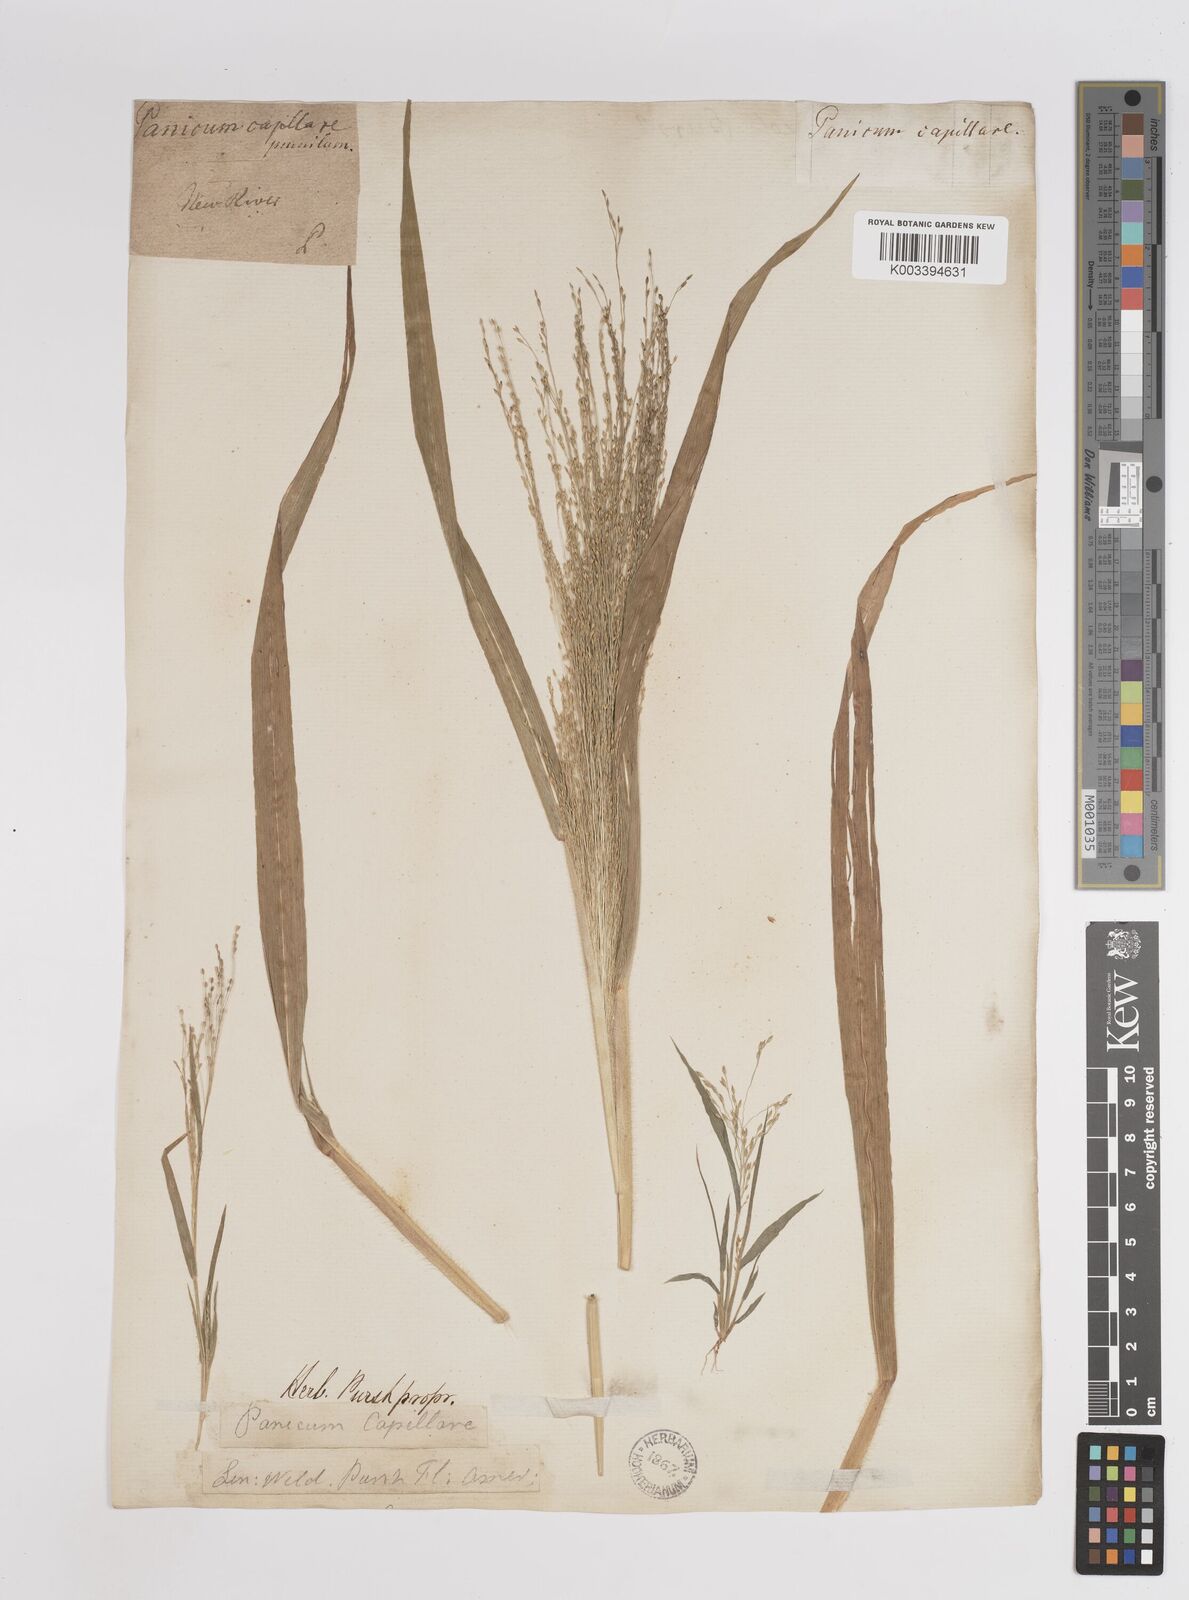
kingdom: Plantae
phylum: Tracheophyta
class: Liliopsida
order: Poales
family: Poaceae
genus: Panicum
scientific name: Panicum capillare
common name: Witch-grass
